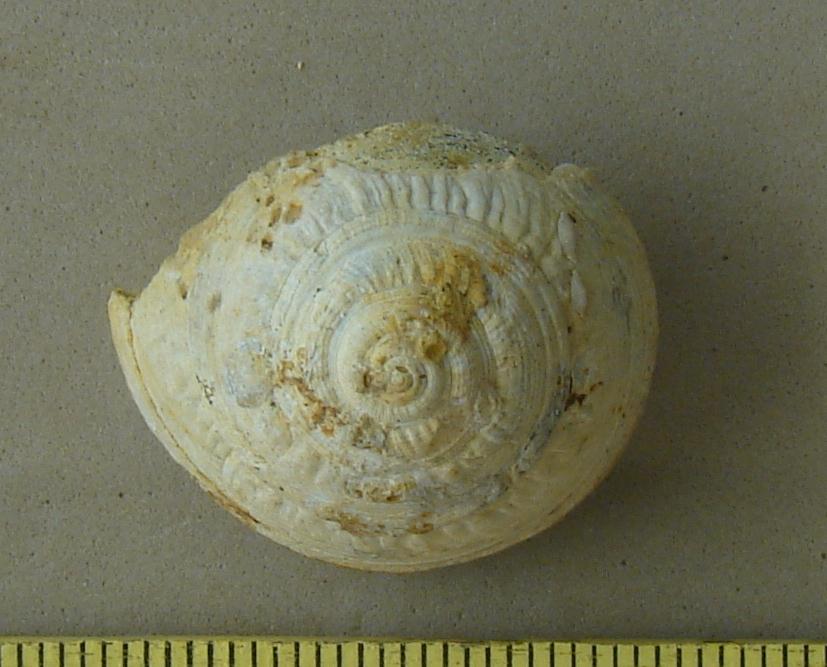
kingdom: Animalia
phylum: Mollusca
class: Gastropoda
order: Pleurotomariida
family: Pleurotomariidae
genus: Leptomaria
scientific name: Leptomaria
